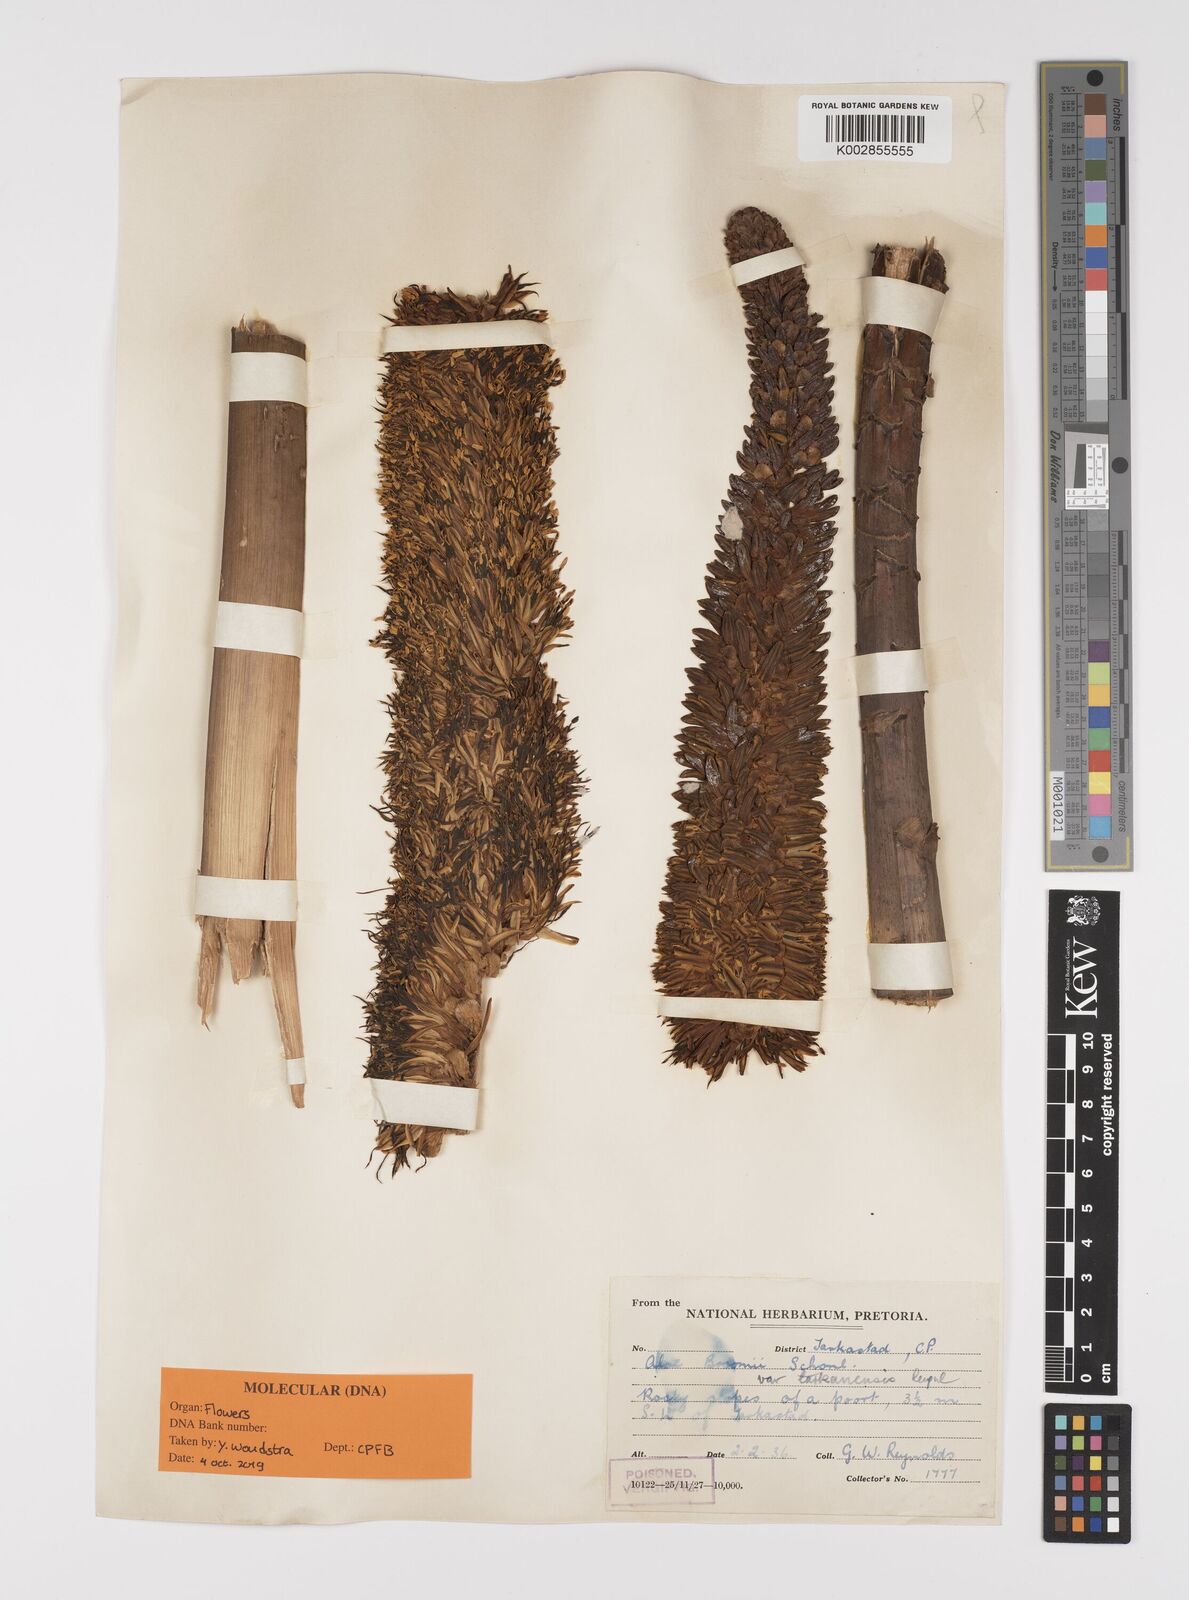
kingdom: Plantae
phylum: Tracheophyta
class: Liliopsida
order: Asparagales
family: Asphodelaceae
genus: Aloe
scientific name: Aloe broomii
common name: Berg alwyn
